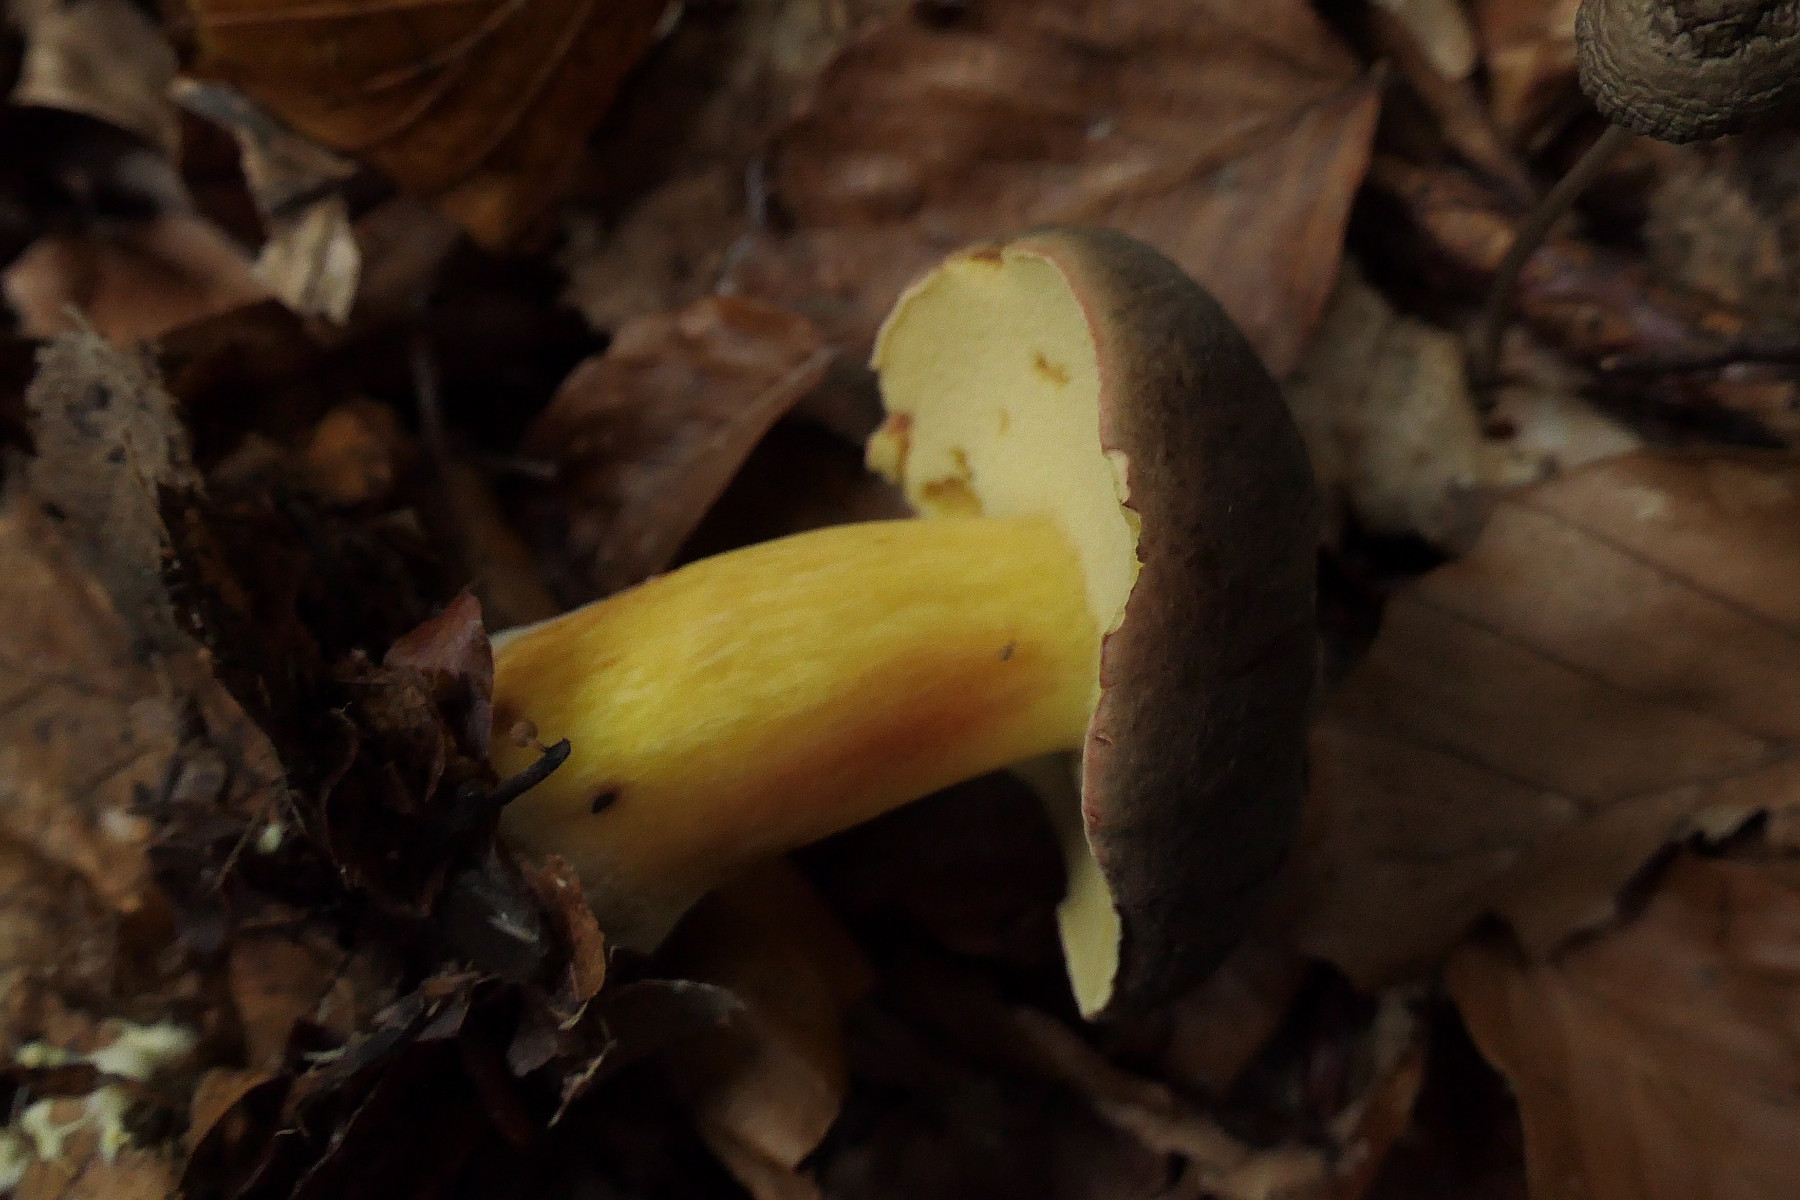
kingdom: Fungi
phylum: Basidiomycota
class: Agaricomycetes
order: Boletales
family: Boletaceae
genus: Xerocomellus
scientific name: Xerocomellus pruinatus
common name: dugget rørhat
